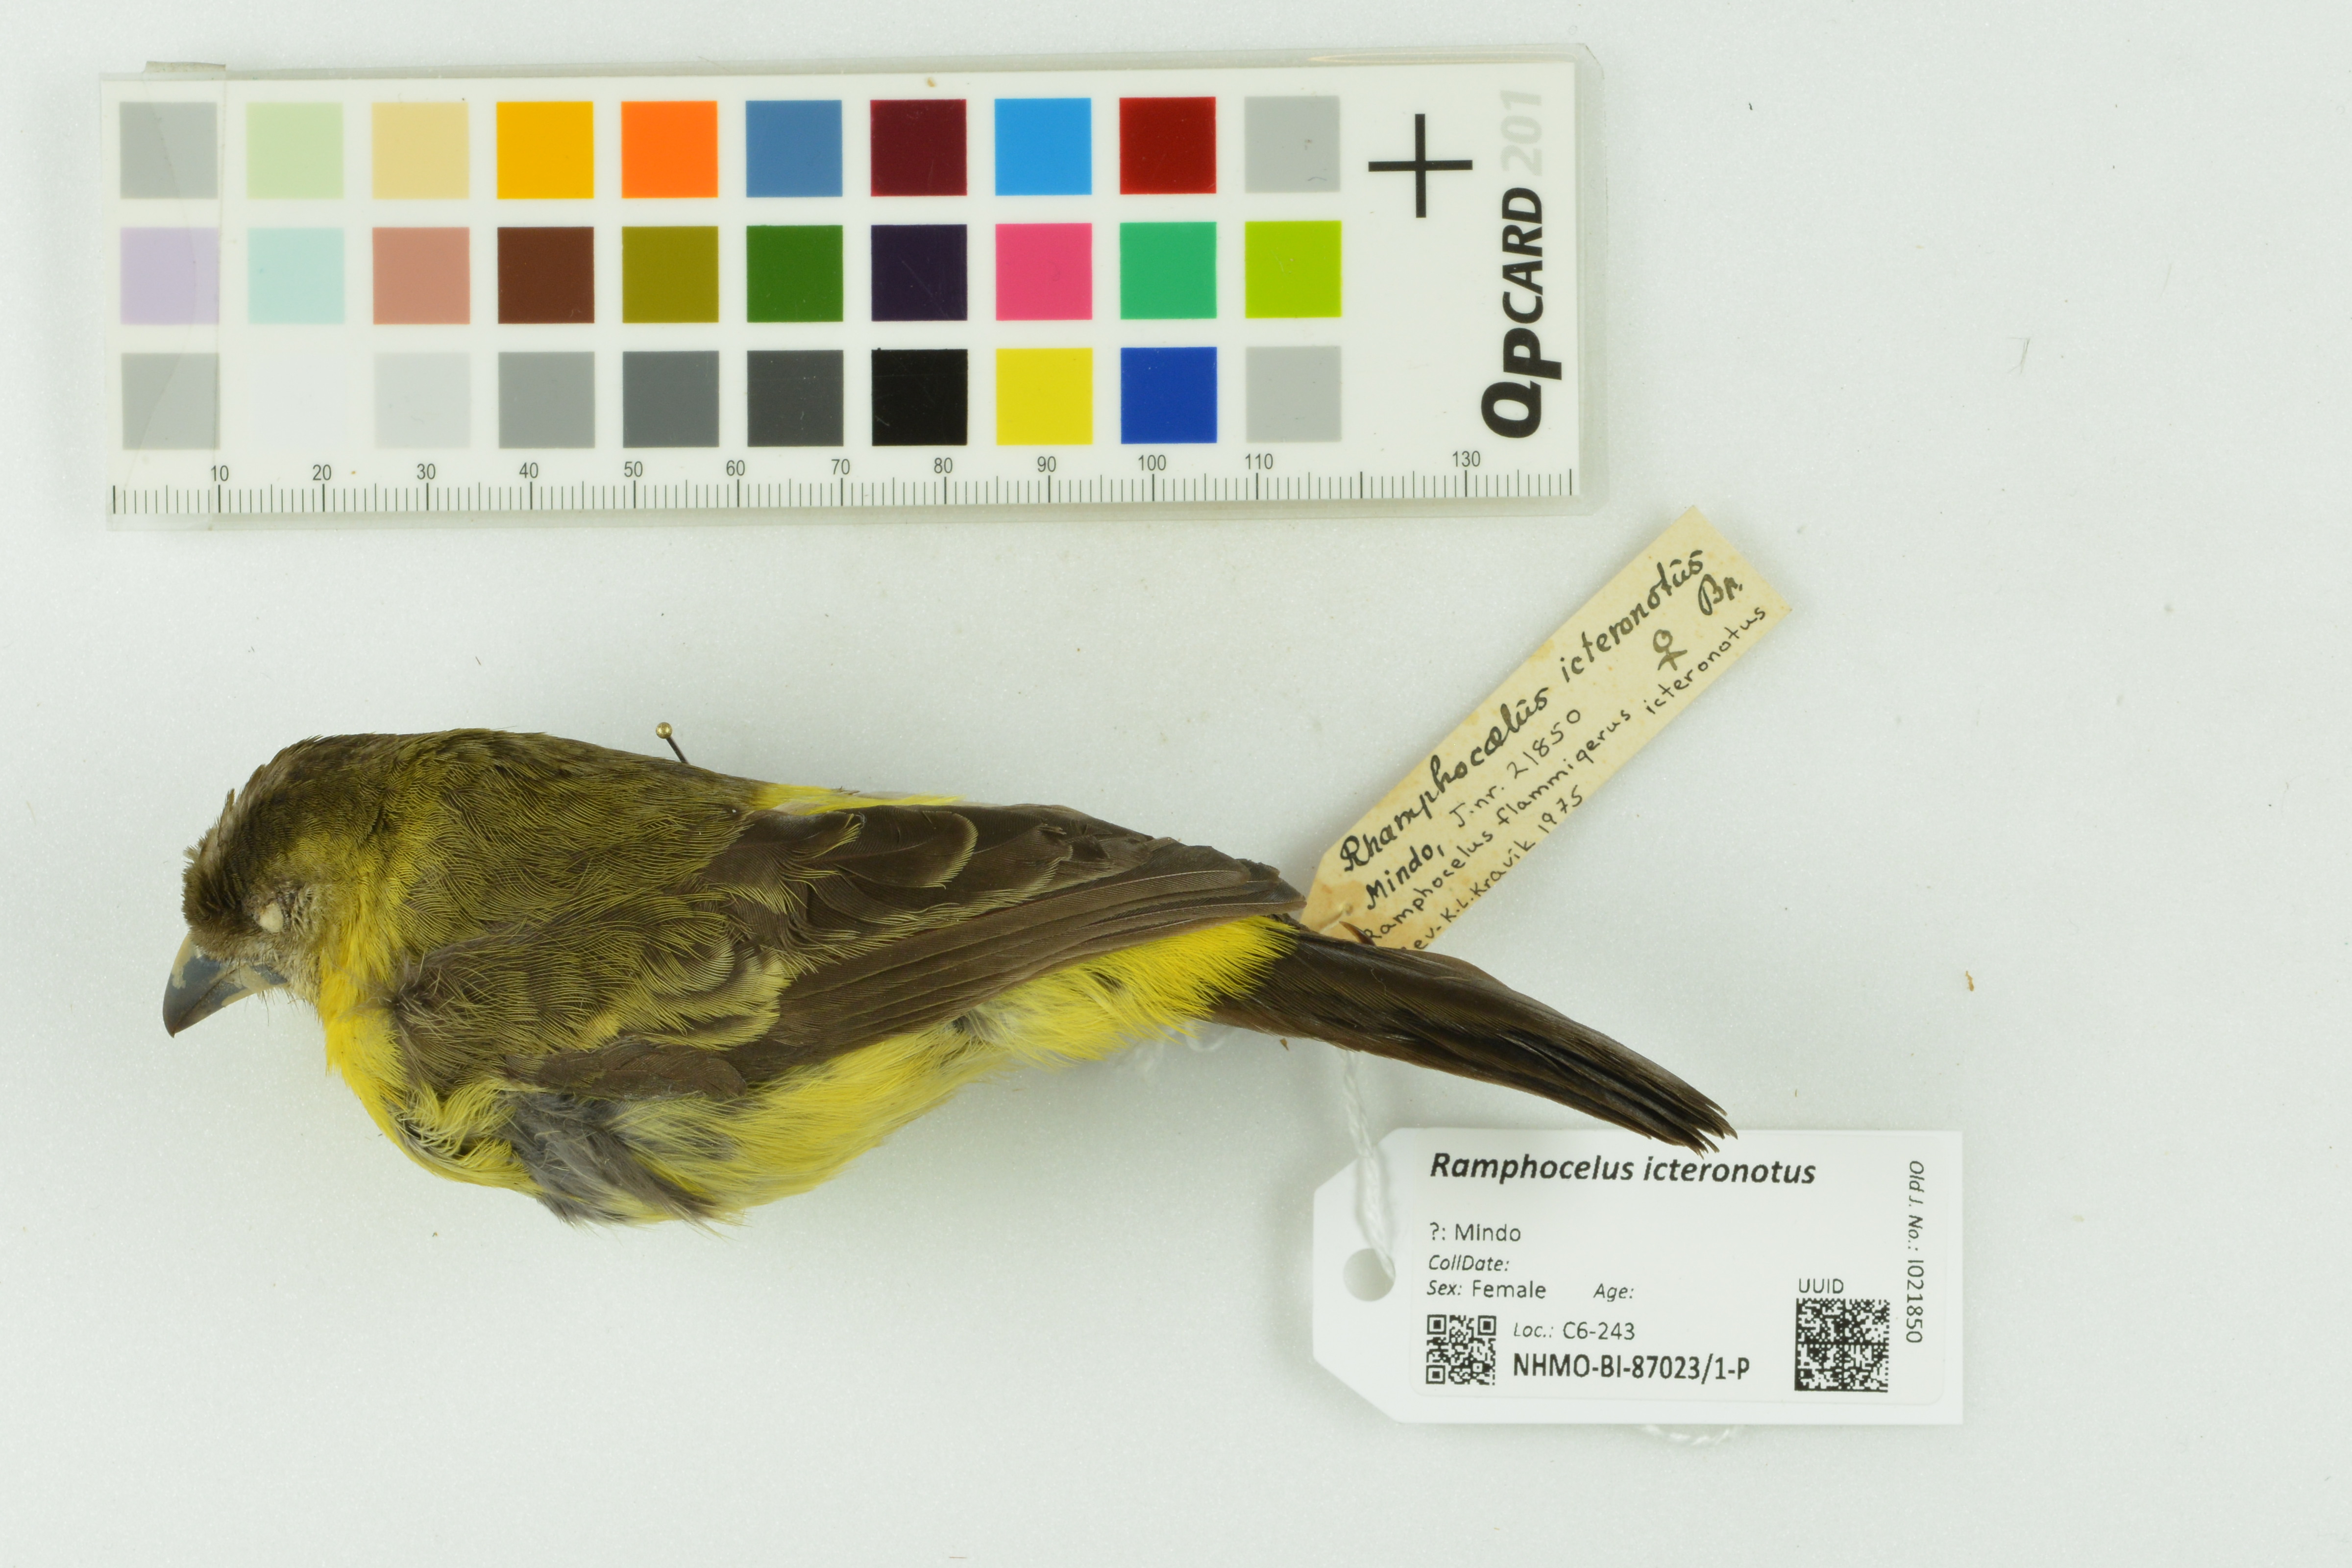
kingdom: Animalia
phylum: Chordata
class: Aves
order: Passeriformes
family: Thraupidae
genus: Ramphocelus
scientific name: Ramphocelus icteronotus
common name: Lemon-rumped tanager
